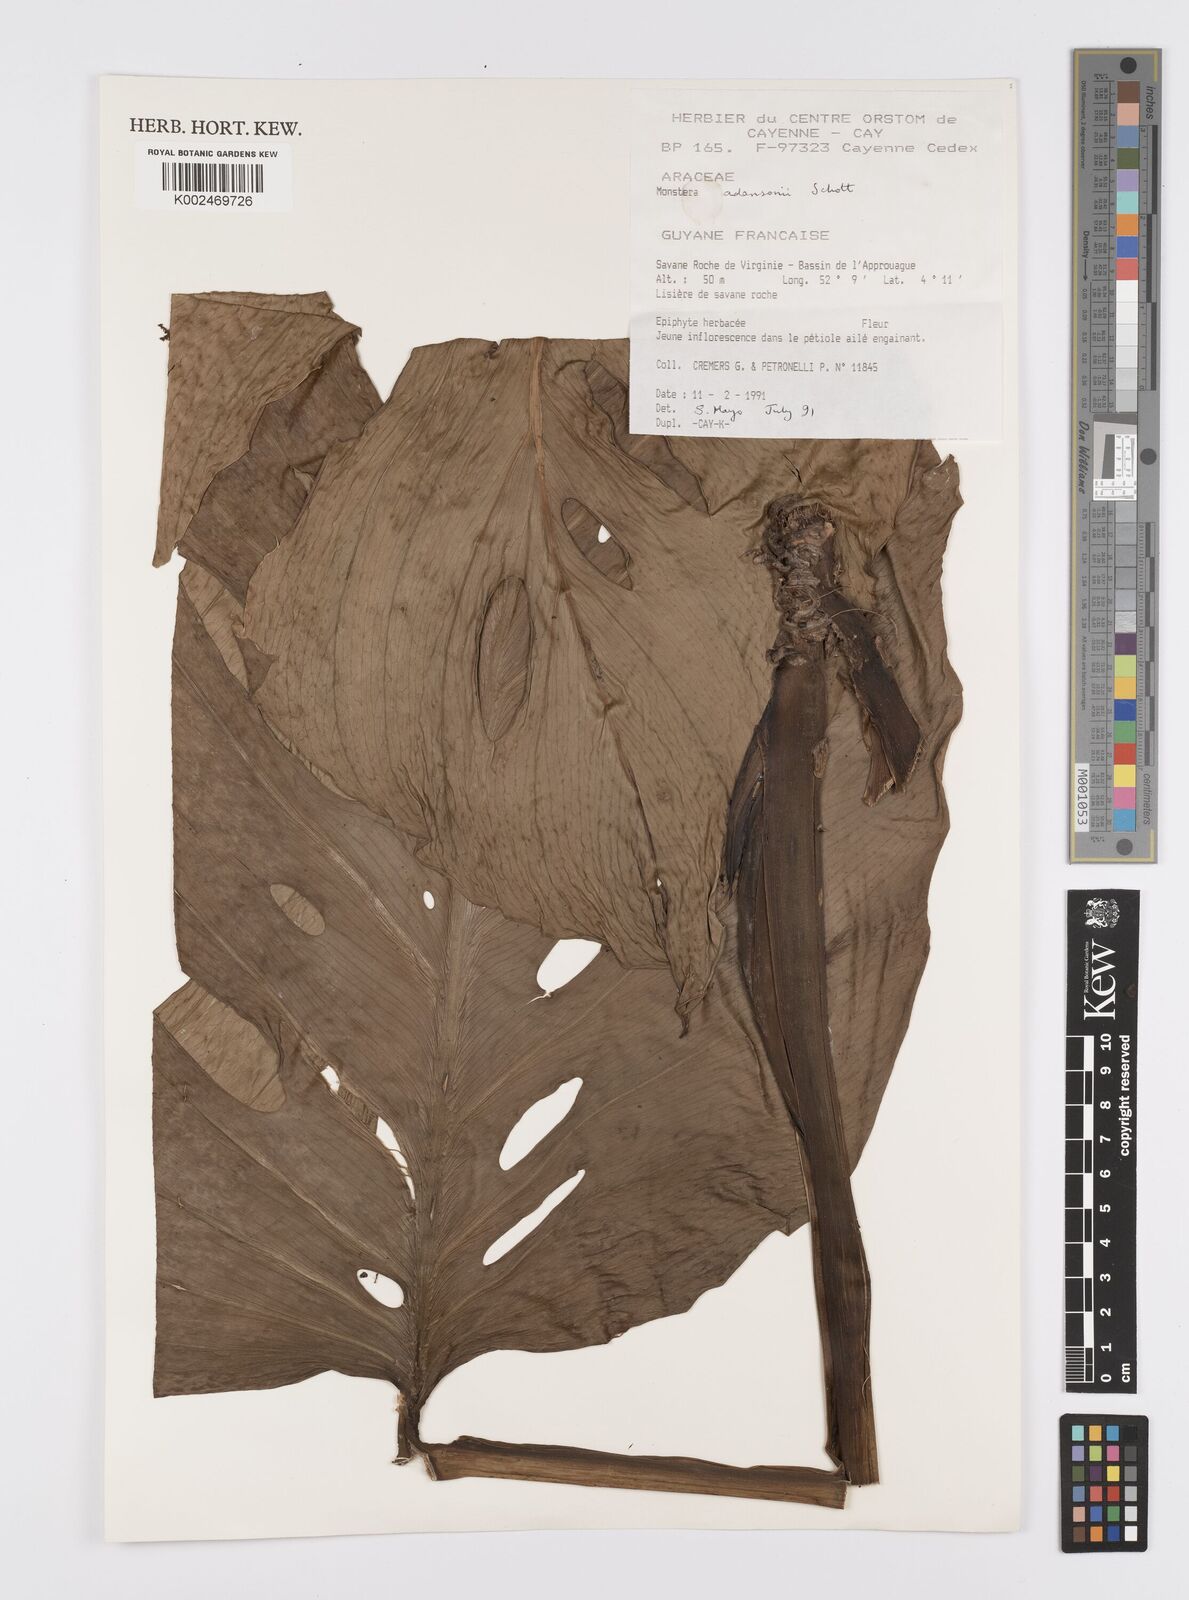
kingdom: Plantae
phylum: Tracheophyta
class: Liliopsida
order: Alismatales
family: Araceae
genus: Monstera
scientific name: Monstera adansonii
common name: Tarovine
